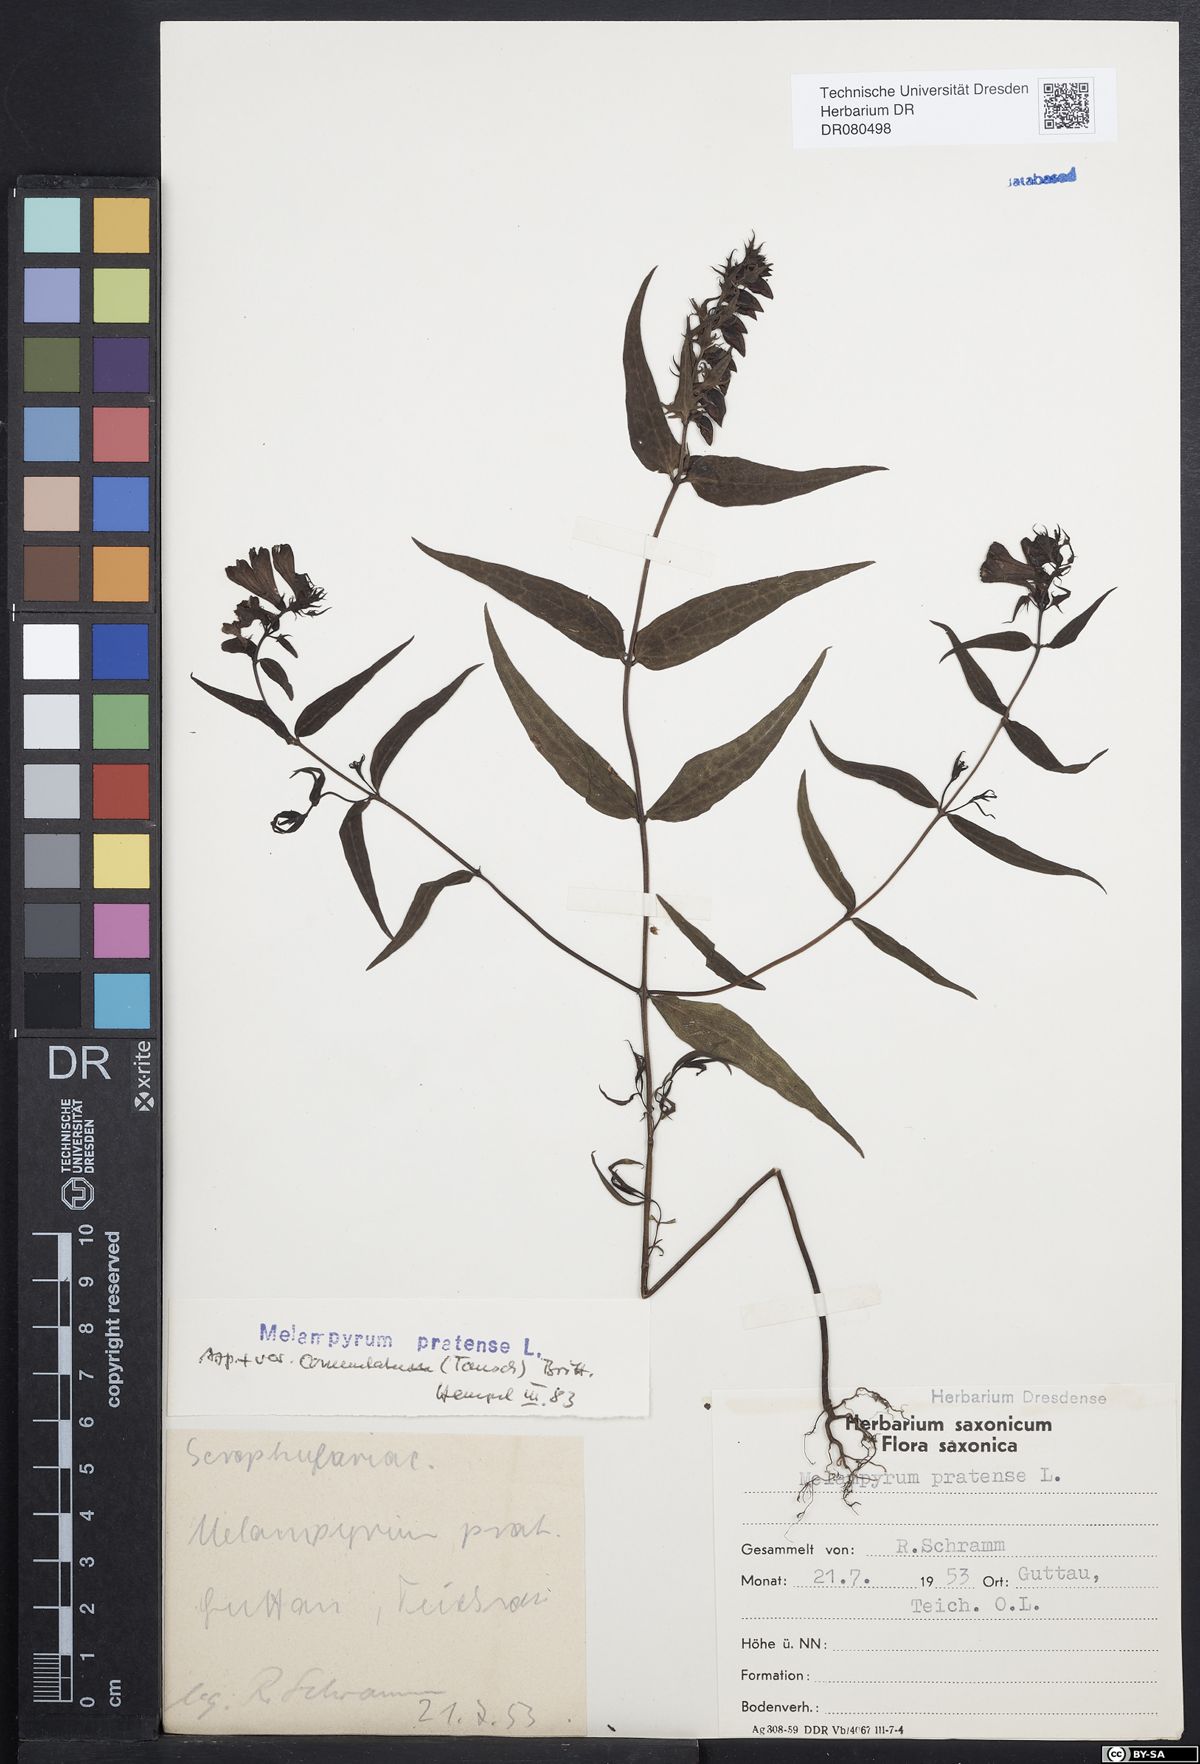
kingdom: Plantae
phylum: Tracheophyta
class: Magnoliopsida
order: Lamiales
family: Orobanchaceae
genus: Melampyrum
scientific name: Melampyrum pratense
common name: Common cow-wheat
